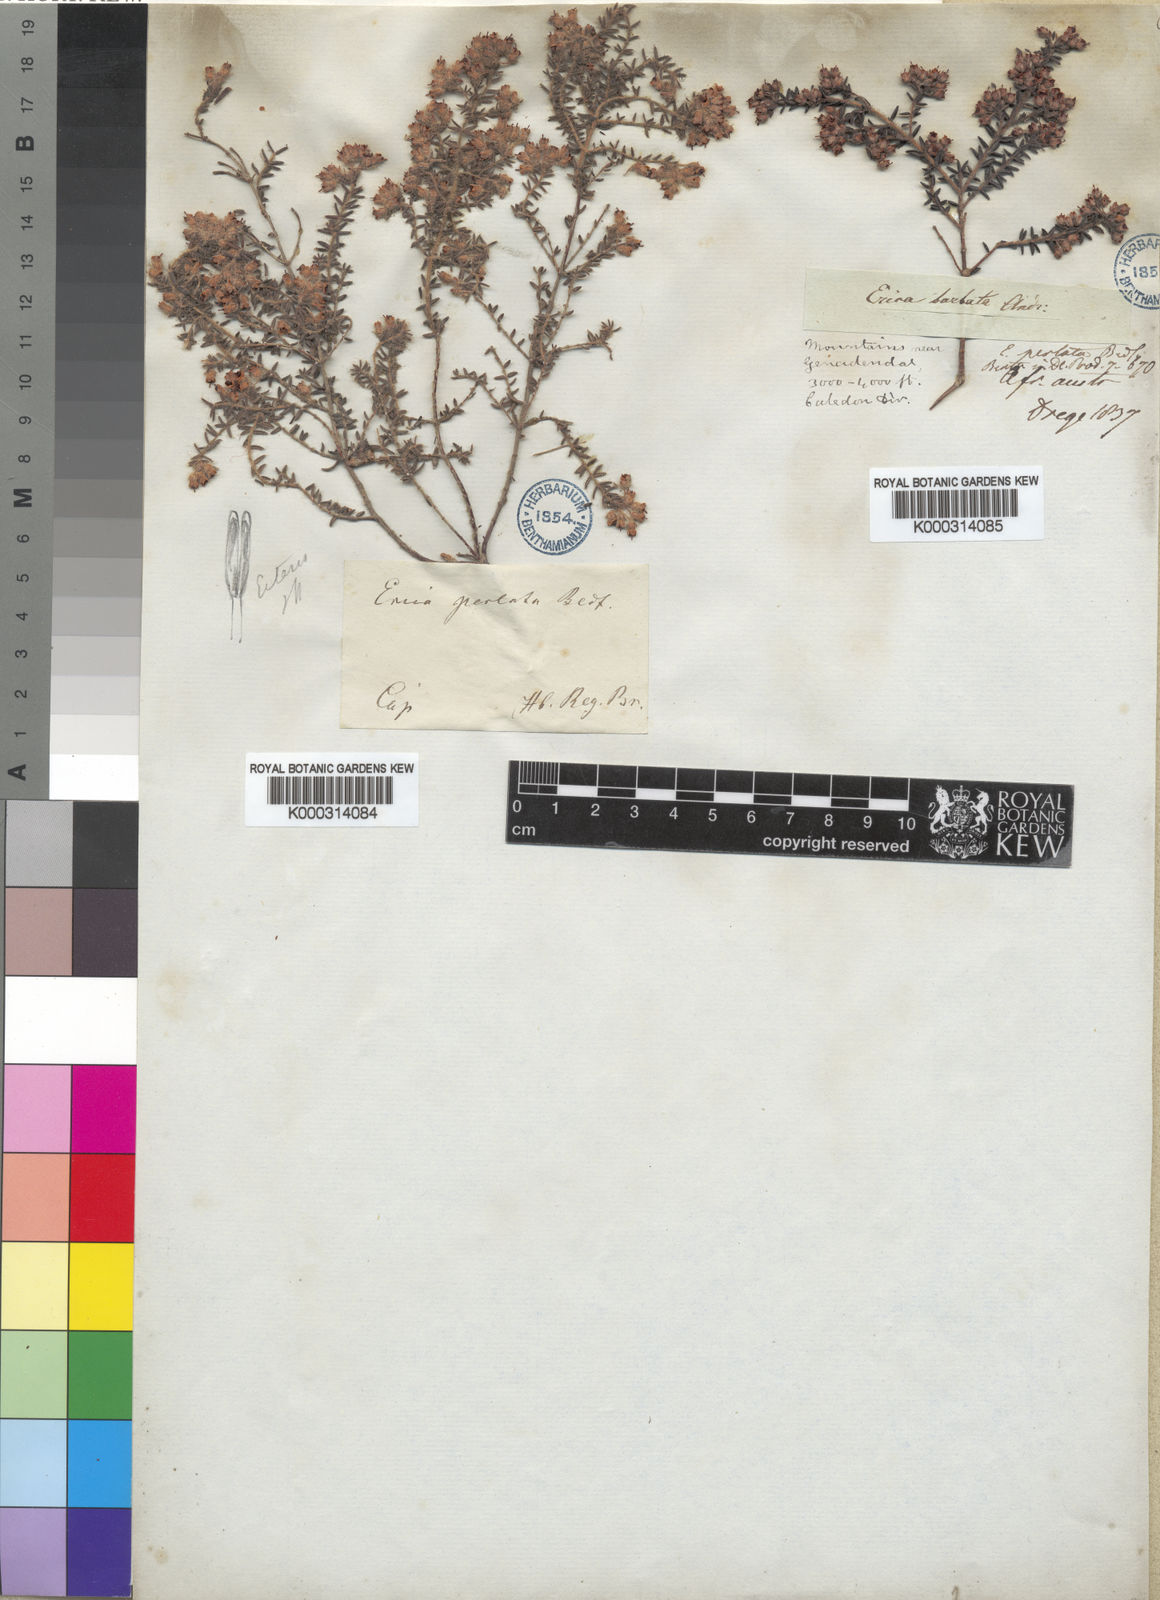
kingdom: Plantae
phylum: Tracheophyta
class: Magnoliopsida
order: Ericales
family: Ericaceae
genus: Erica
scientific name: Erica perlata
